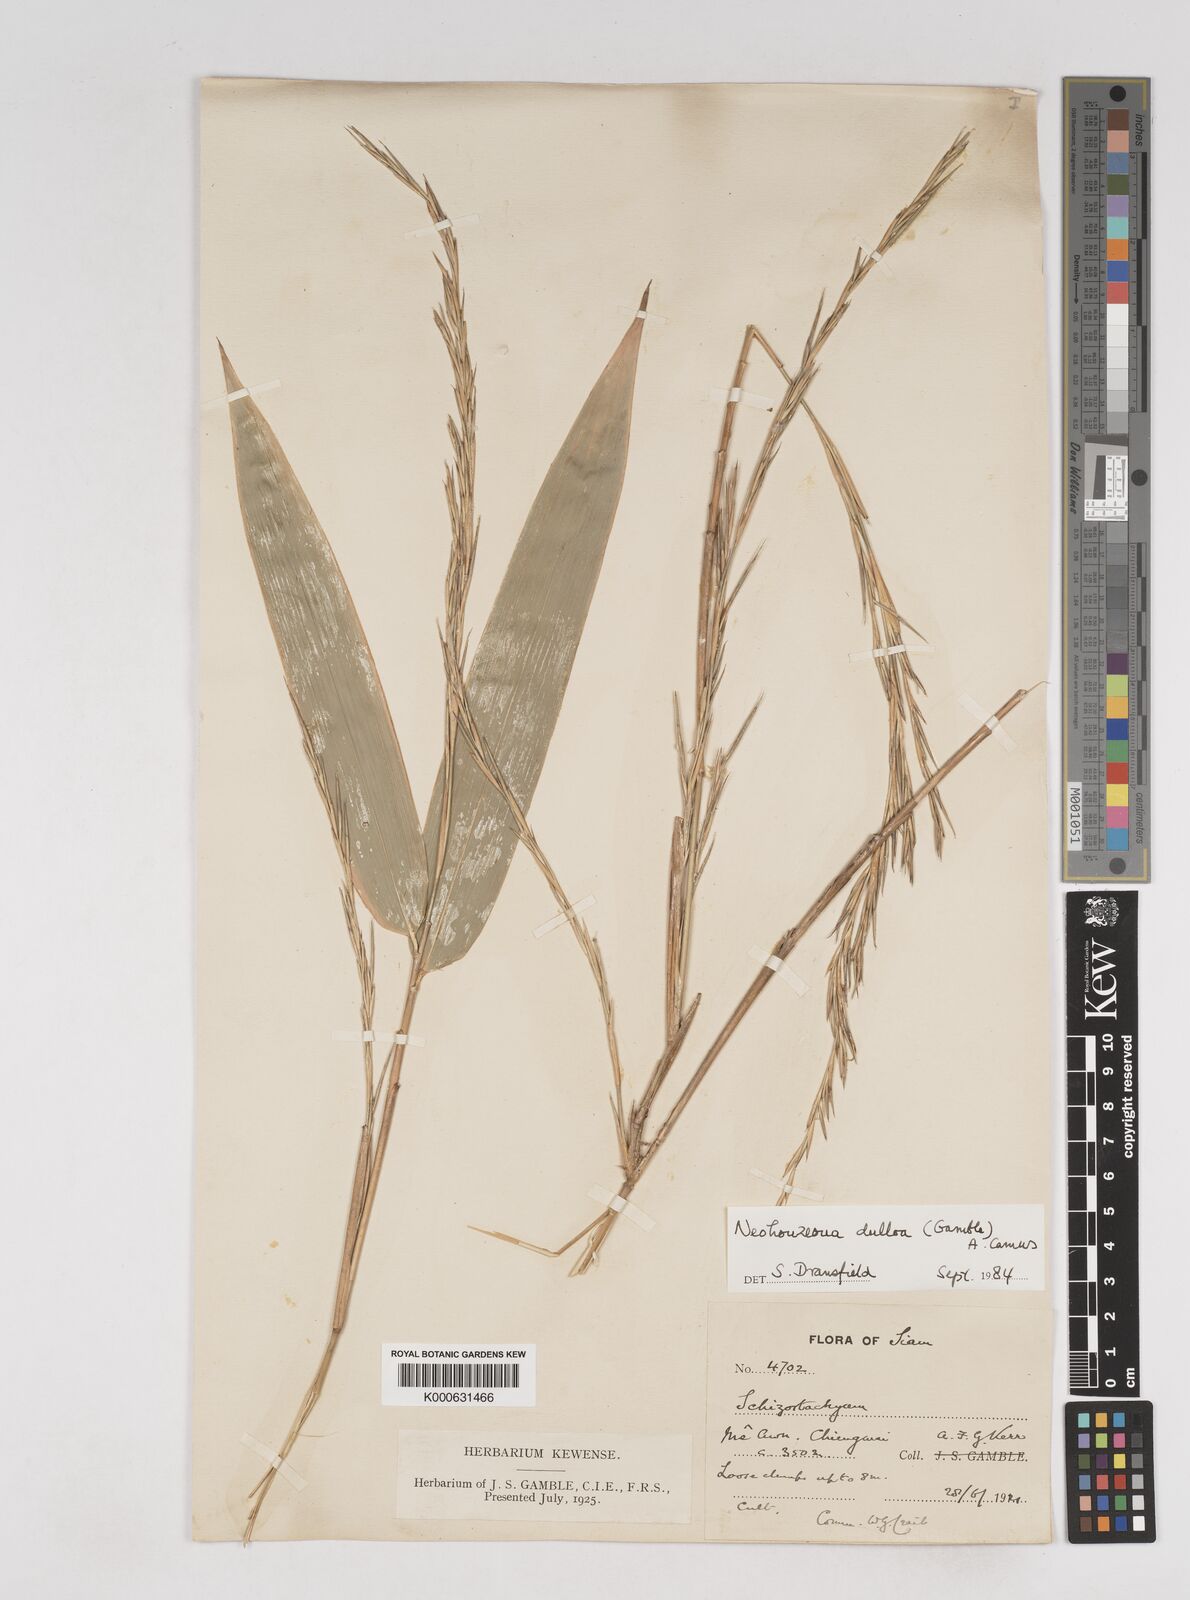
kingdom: Plantae
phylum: Tracheophyta
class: Liliopsida
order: Poales
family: Poaceae
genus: Schizostachyum
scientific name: Schizostachyum dullooa
